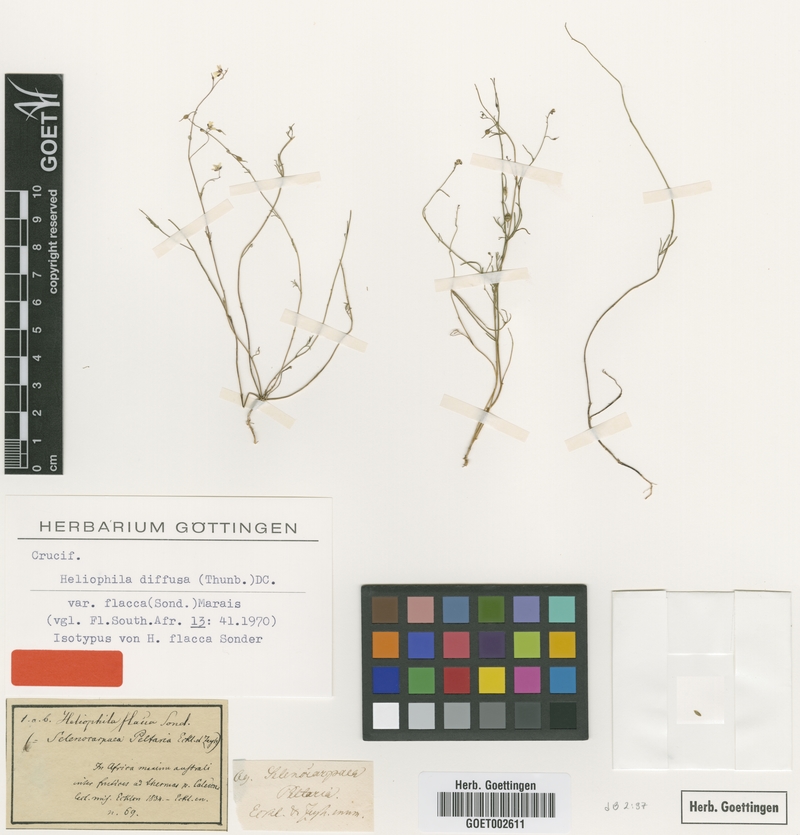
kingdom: Plantae
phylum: Tracheophyta
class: Magnoliopsida
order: Brassicales
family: Brassicaceae
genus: Heliophila
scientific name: Heliophila diffusa
